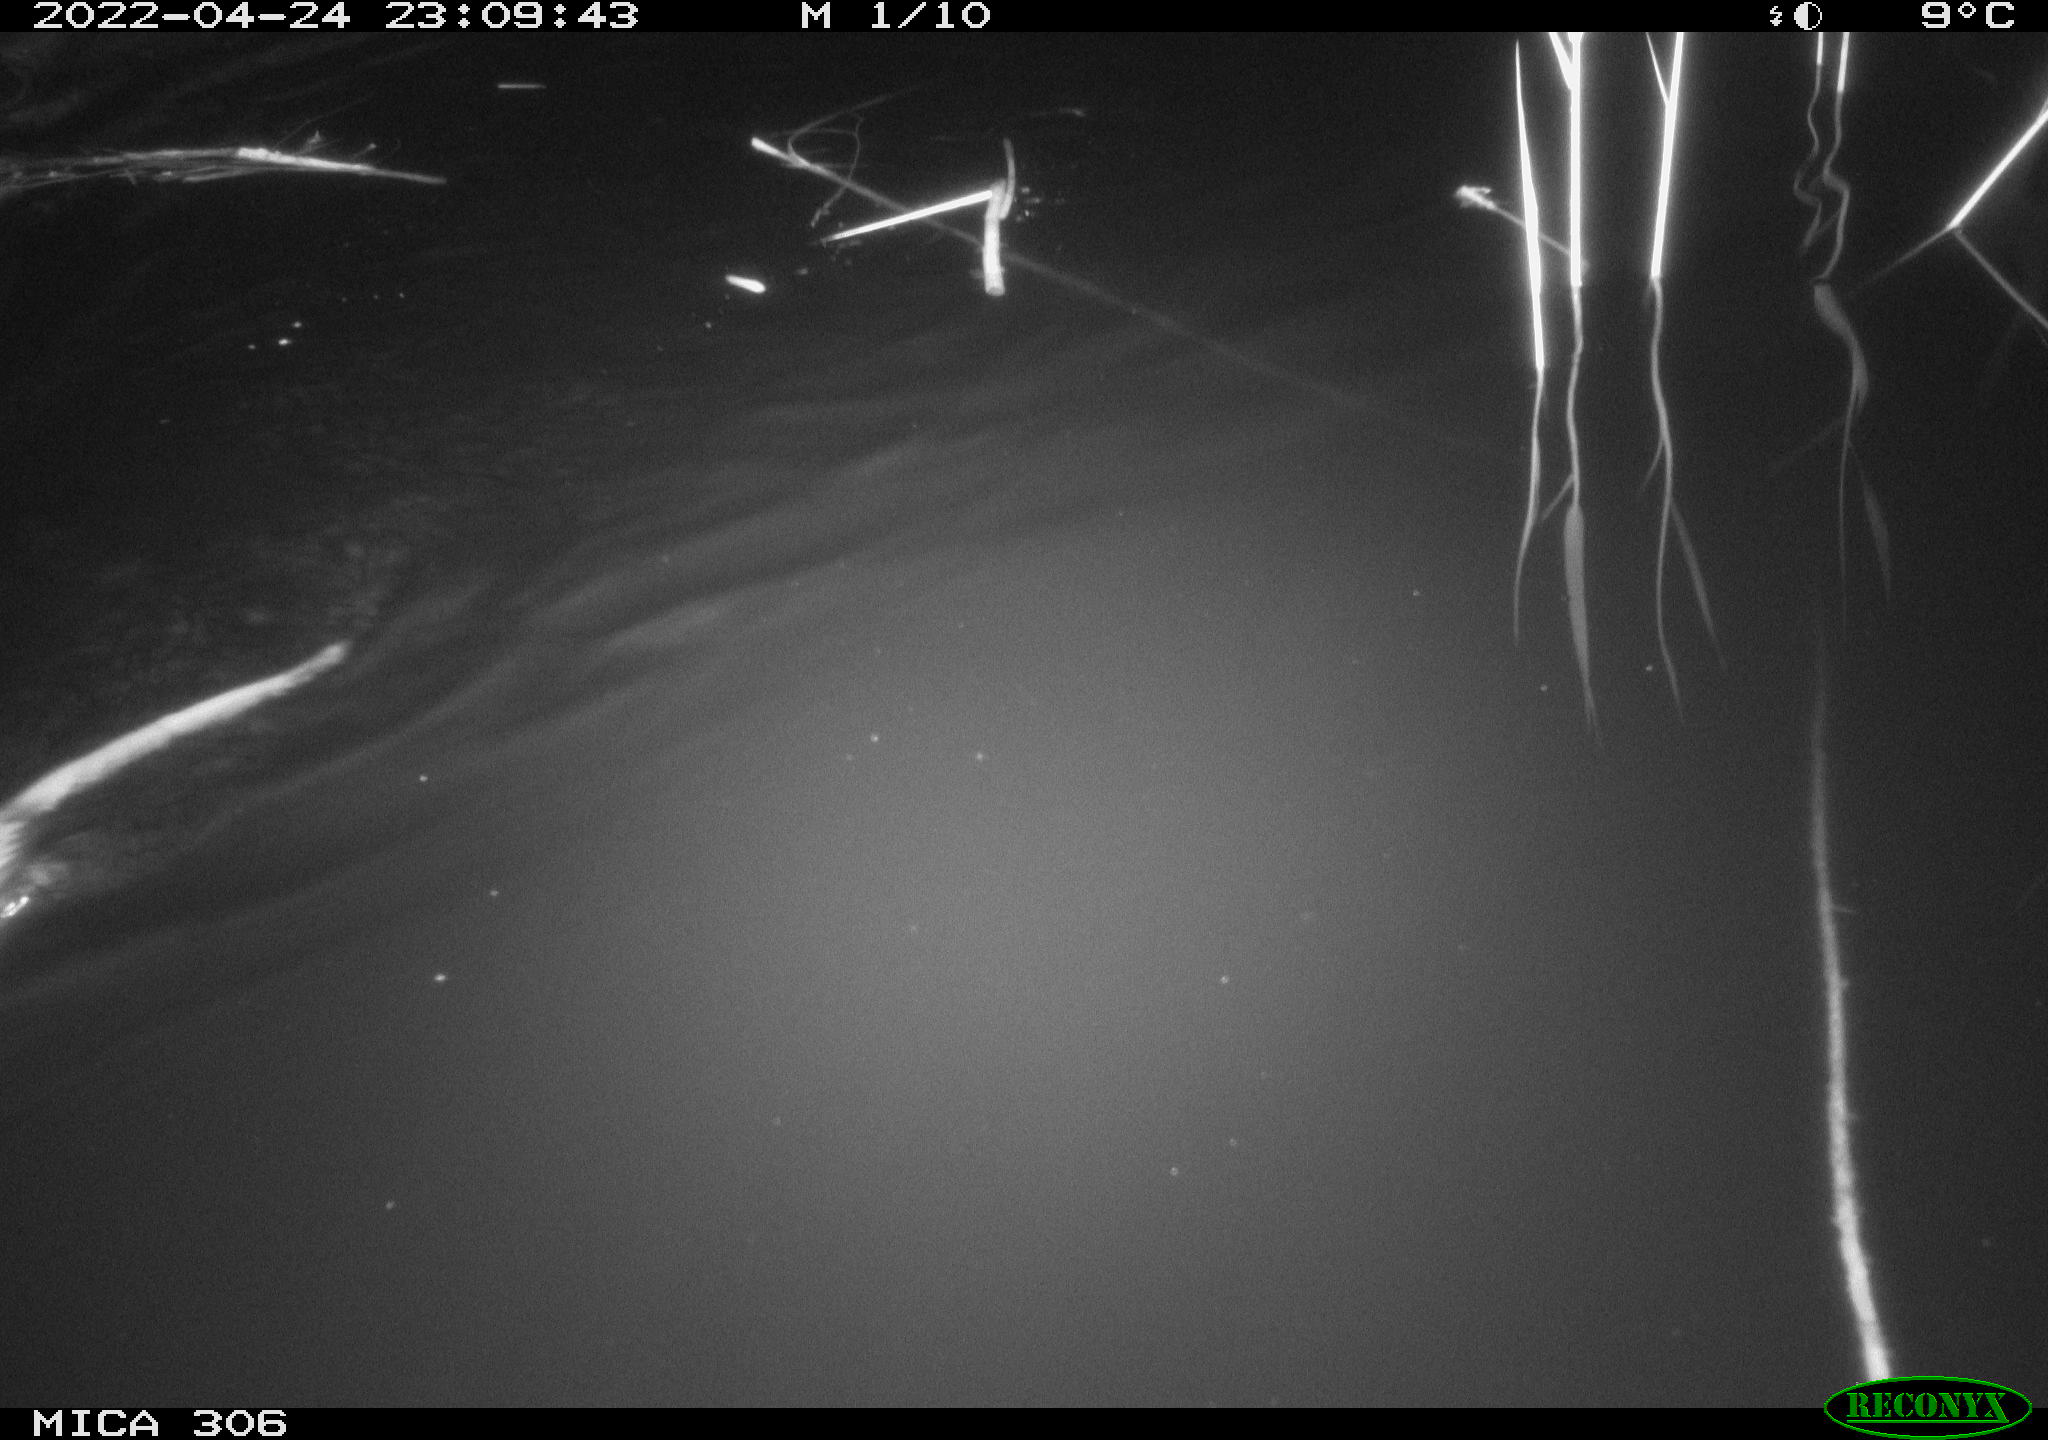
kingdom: Animalia
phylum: Chordata
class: Mammalia
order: Rodentia
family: Cricetidae
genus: Ondatra
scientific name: Ondatra zibethicus
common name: Muskrat
